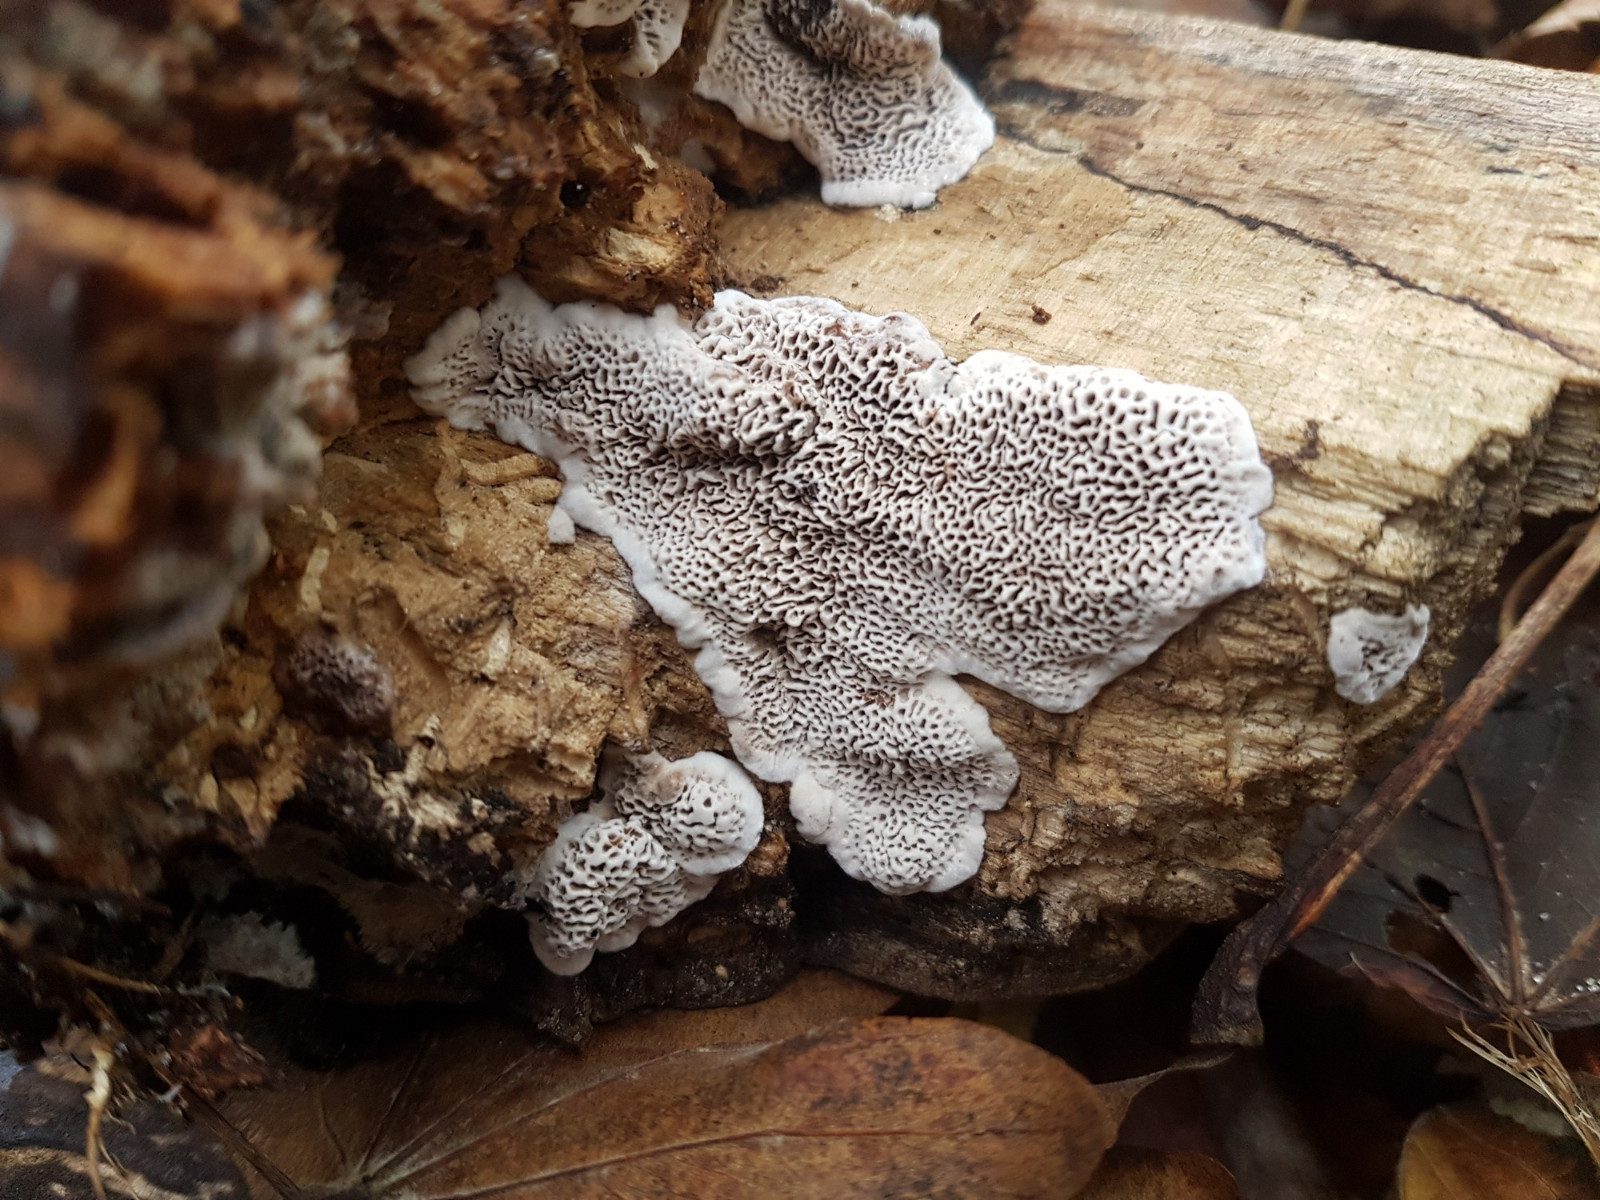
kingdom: Fungi
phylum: Basidiomycota
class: Agaricomycetes
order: Polyporales
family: Polyporaceae
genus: Podofomes
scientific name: Podofomes mollis
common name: blød begporesvamp
